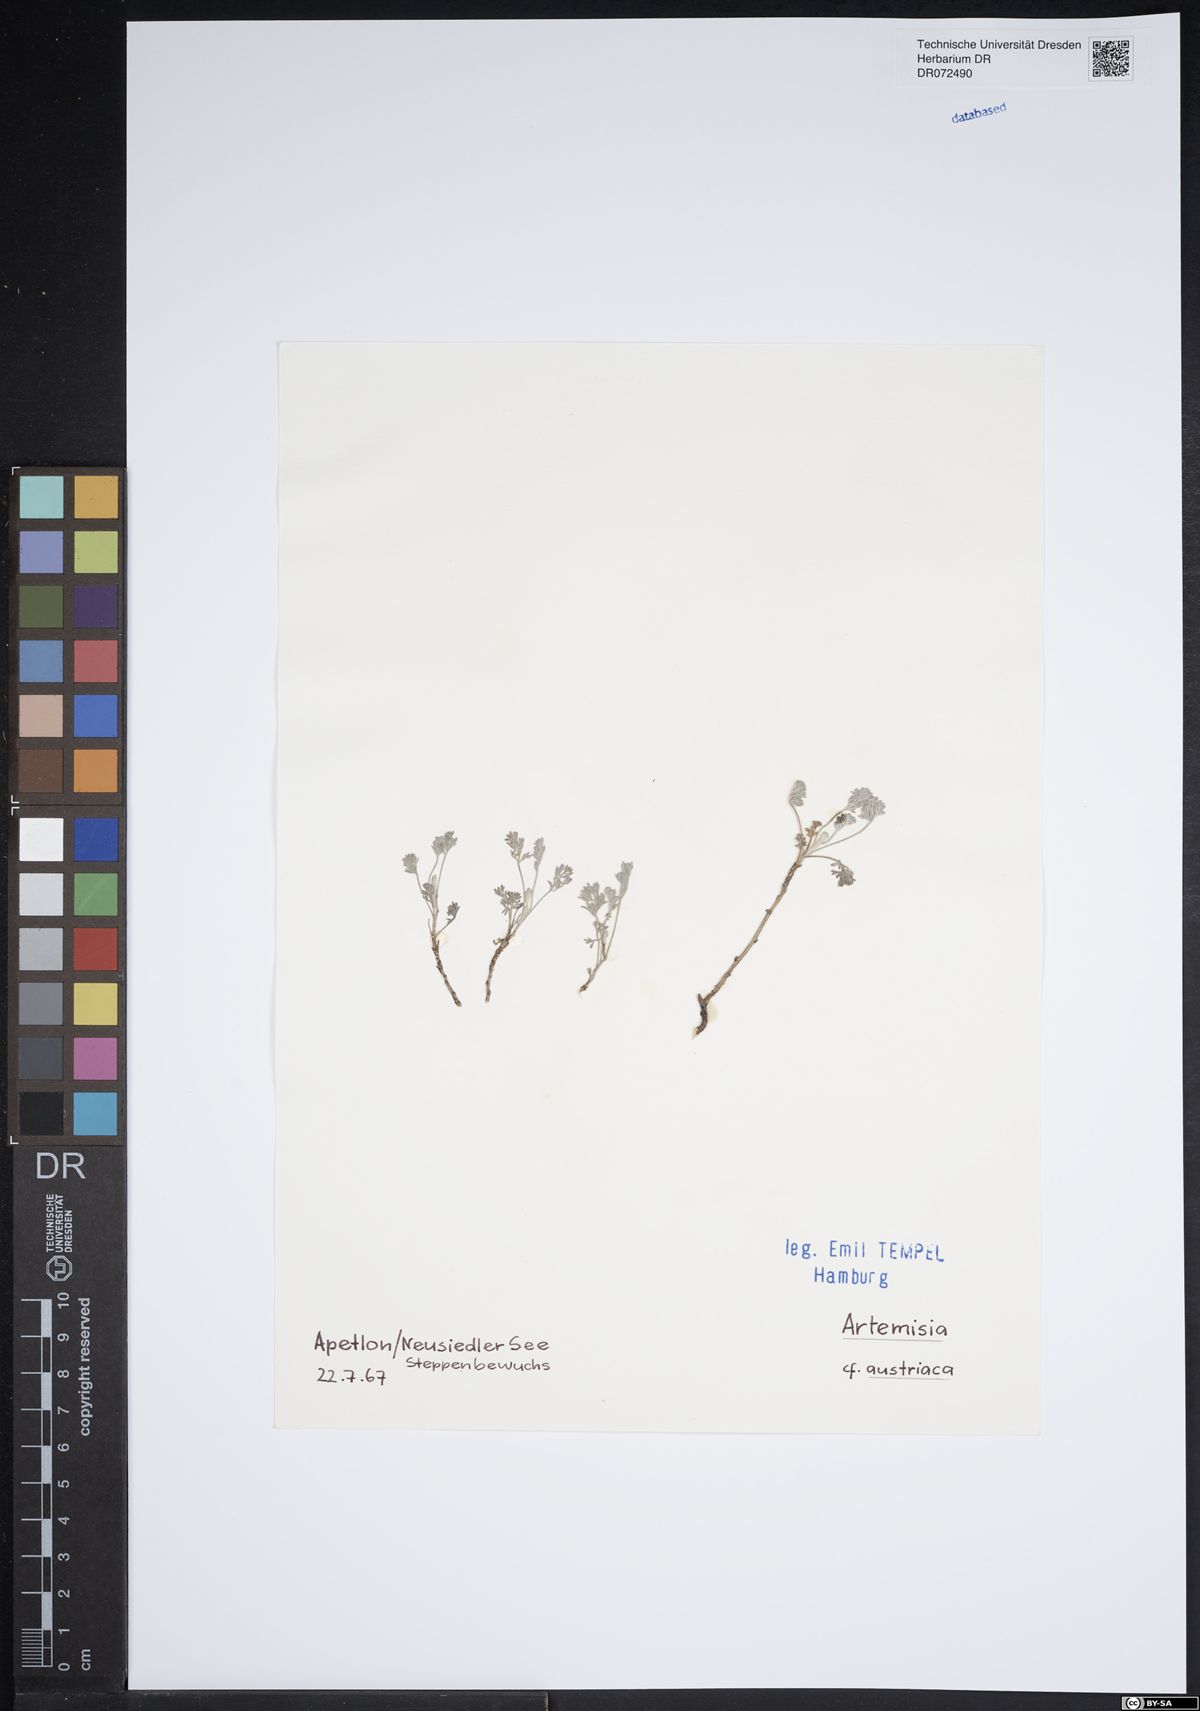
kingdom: Plantae
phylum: Tracheophyta
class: Magnoliopsida
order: Asterales
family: Asteraceae
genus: Artemisia
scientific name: Artemisia austriaca
